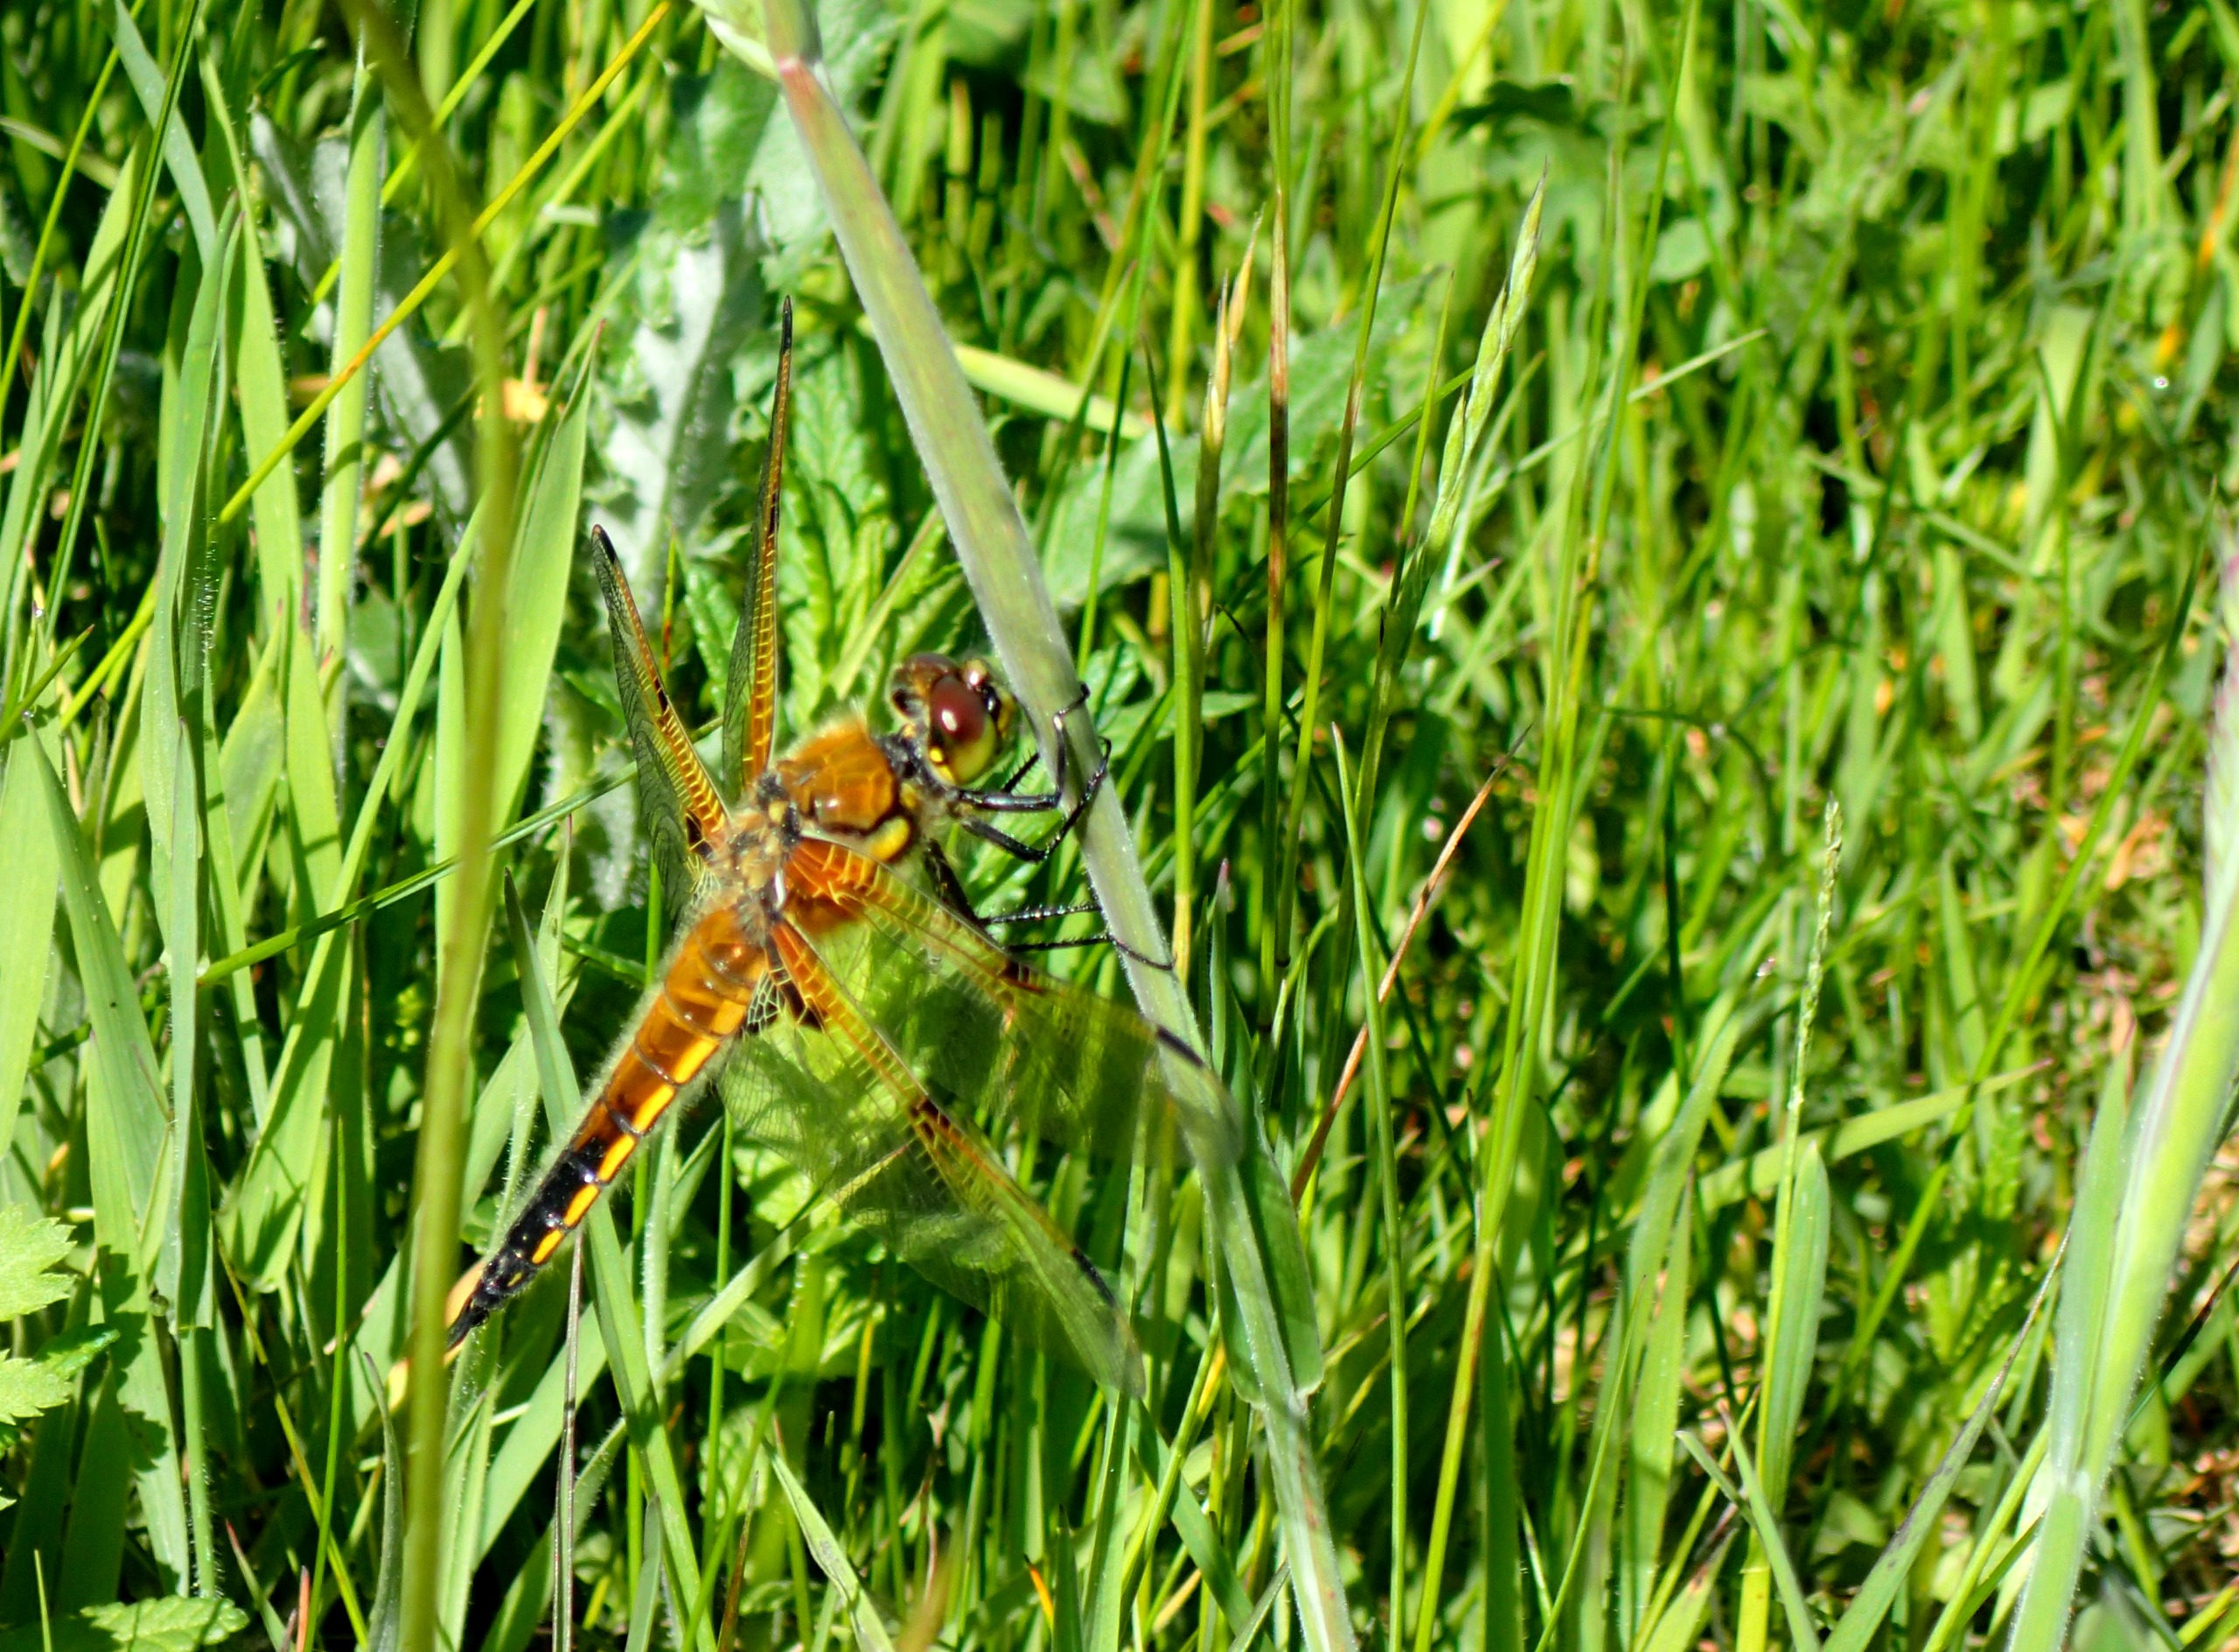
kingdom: Animalia
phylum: Arthropoda
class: Insecta
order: Odonata
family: Libellulidae
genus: Libellula
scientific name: Libellula quadrimaculata
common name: Fireplettet libel
